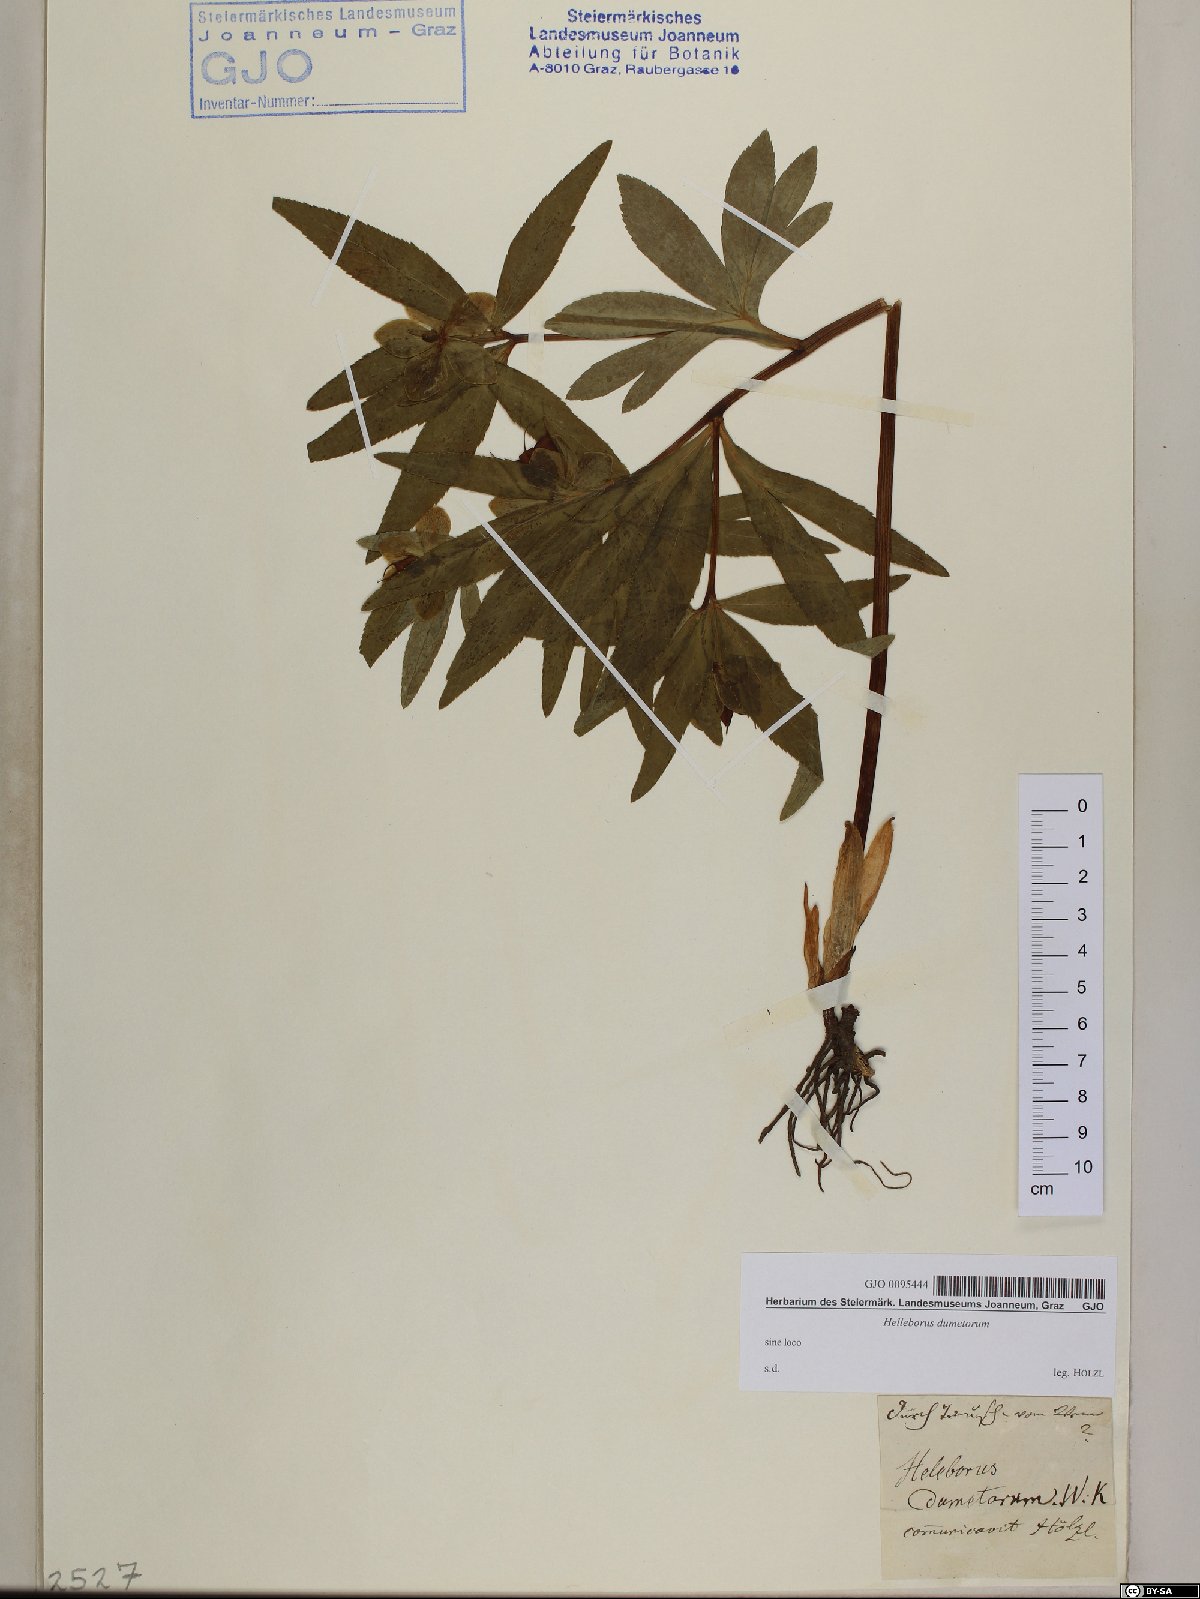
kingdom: Plantae
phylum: Tracheophyta
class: Magnoliopsida
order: Ranunculales
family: Ranunculaceae
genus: Helleborus
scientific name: Helleborus dumetorum
